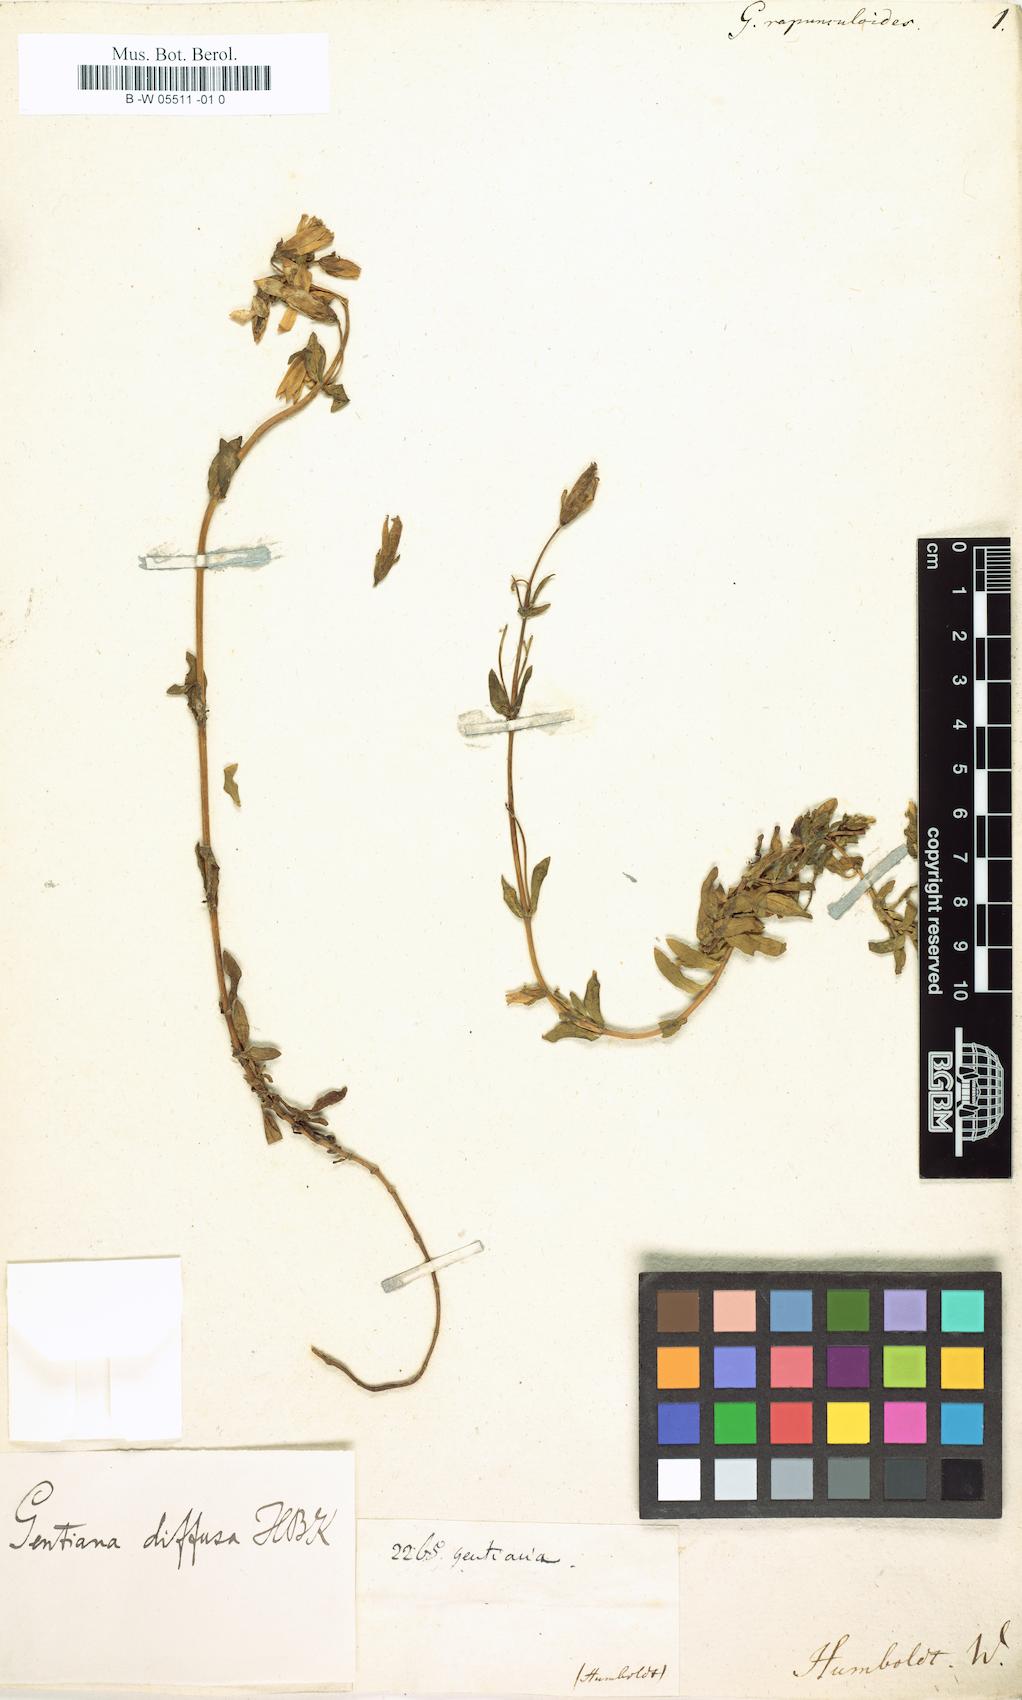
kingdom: Plantae
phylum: Tracheophyta
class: Magnoliopsida
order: Gentianales
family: Gentianaceae
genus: Gentianella
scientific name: Gentianella rapunculoides
